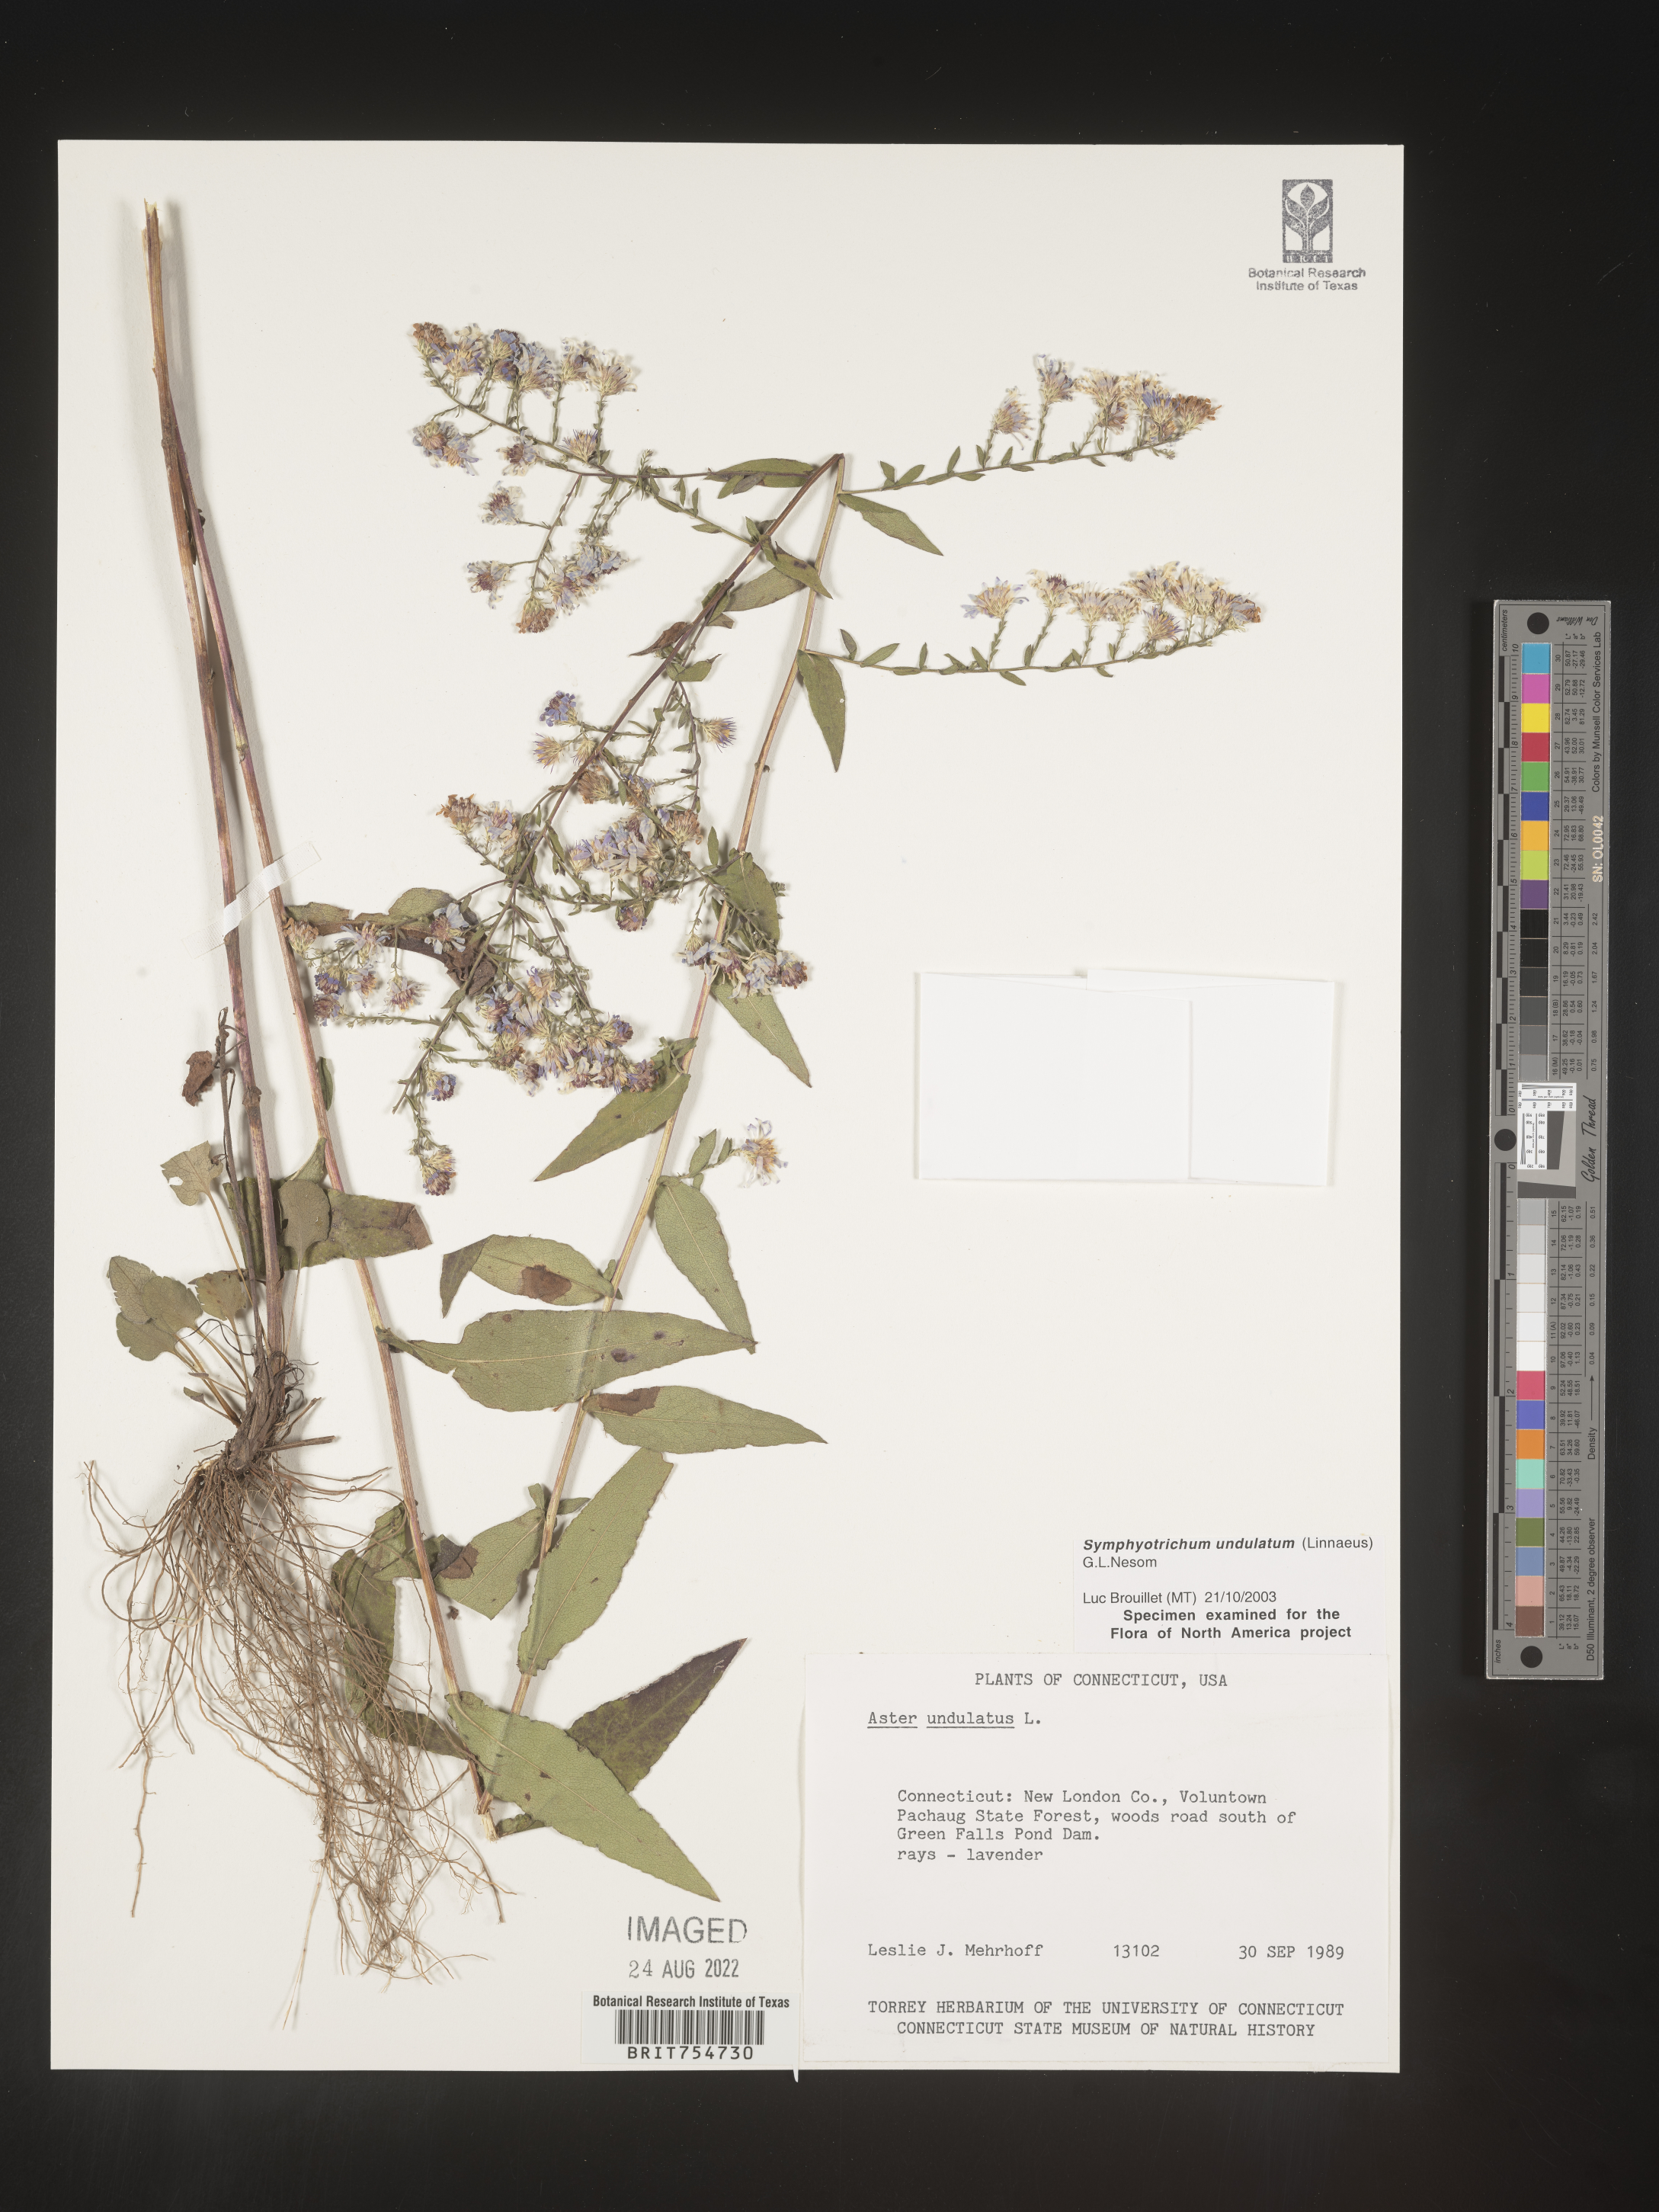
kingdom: Plantae
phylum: Tracheophyta
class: Magnoliopsida
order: Asterales
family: Asteraceae
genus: Symphyotrichum
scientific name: Symphyotrichum undulatum
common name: Clasping heart-leaf aster
